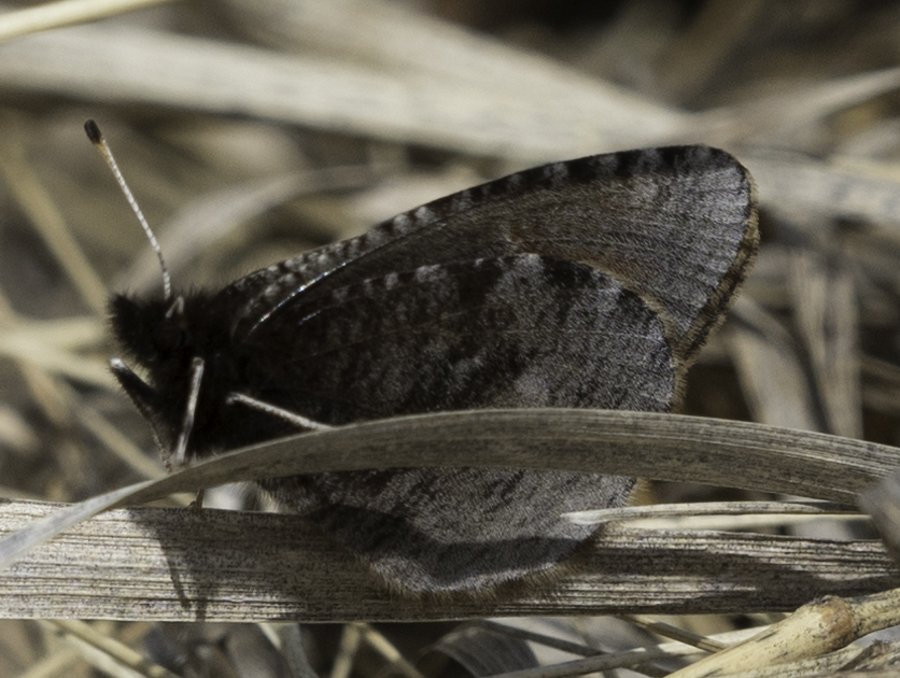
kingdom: Animalia
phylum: Arthropoda
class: Insecta
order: Lepidoptera
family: Nymphalidae
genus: Erebia
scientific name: Erebia discoidalis
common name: Red-disked Alpine
